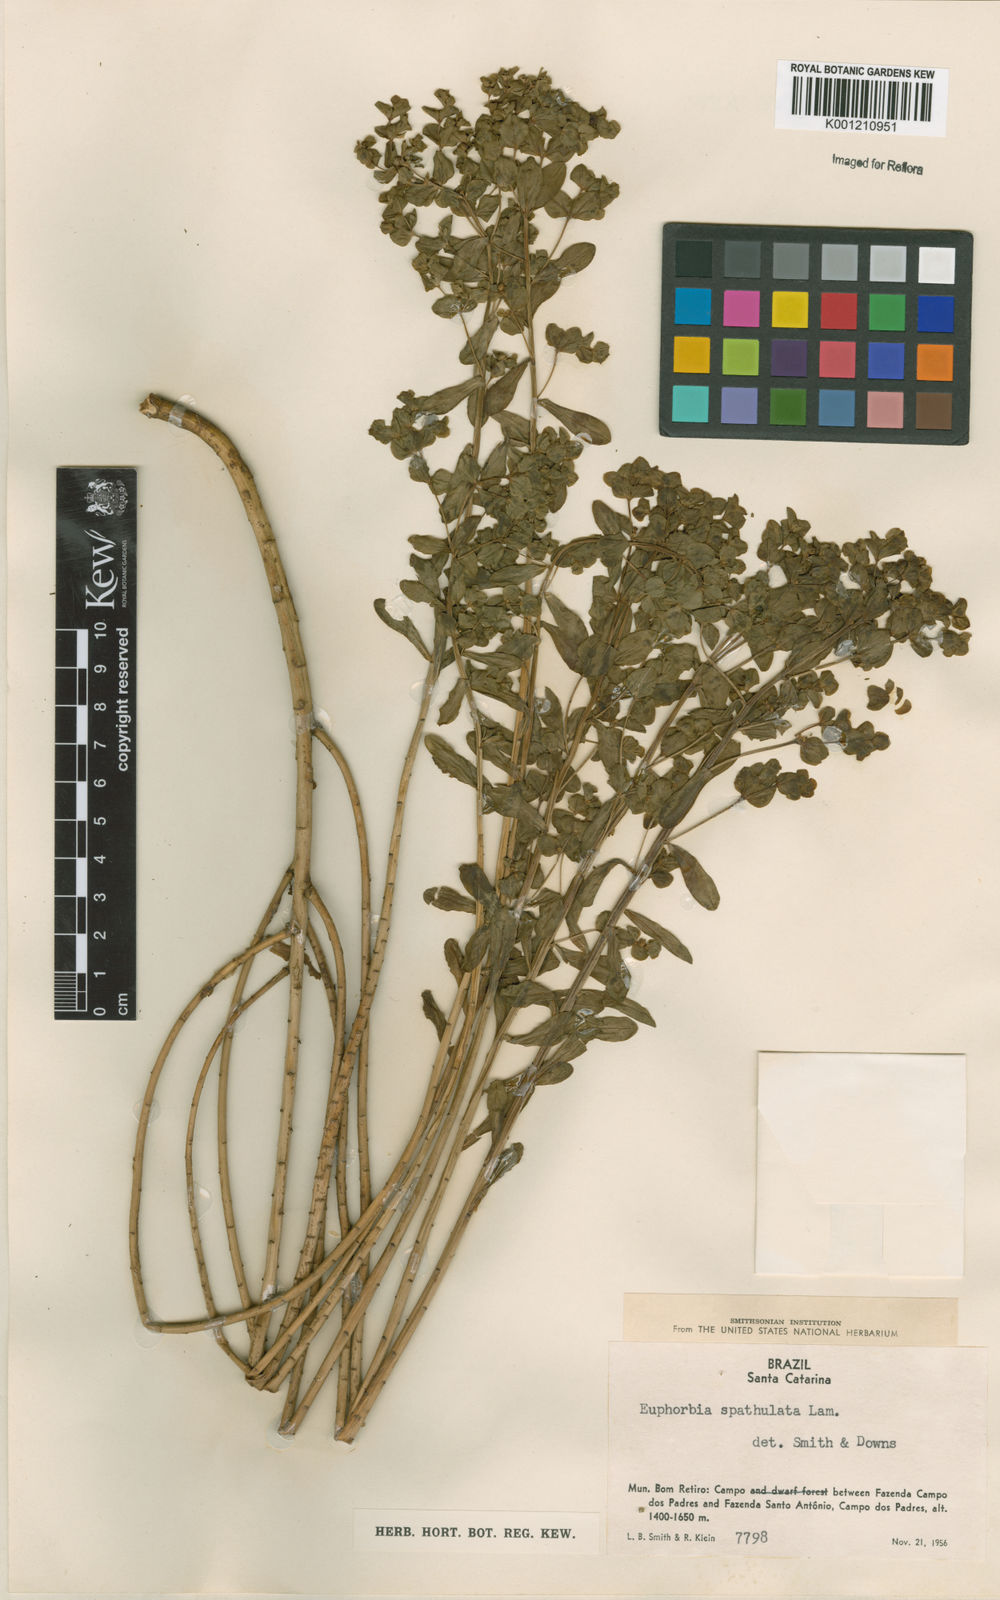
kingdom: Plantae
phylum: Tracheophyta
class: Magnoliopsida
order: Malpighiales
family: Euphorbiaceae
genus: Euphorbia
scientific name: Euphorbia spathulata
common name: Blunt spurge
